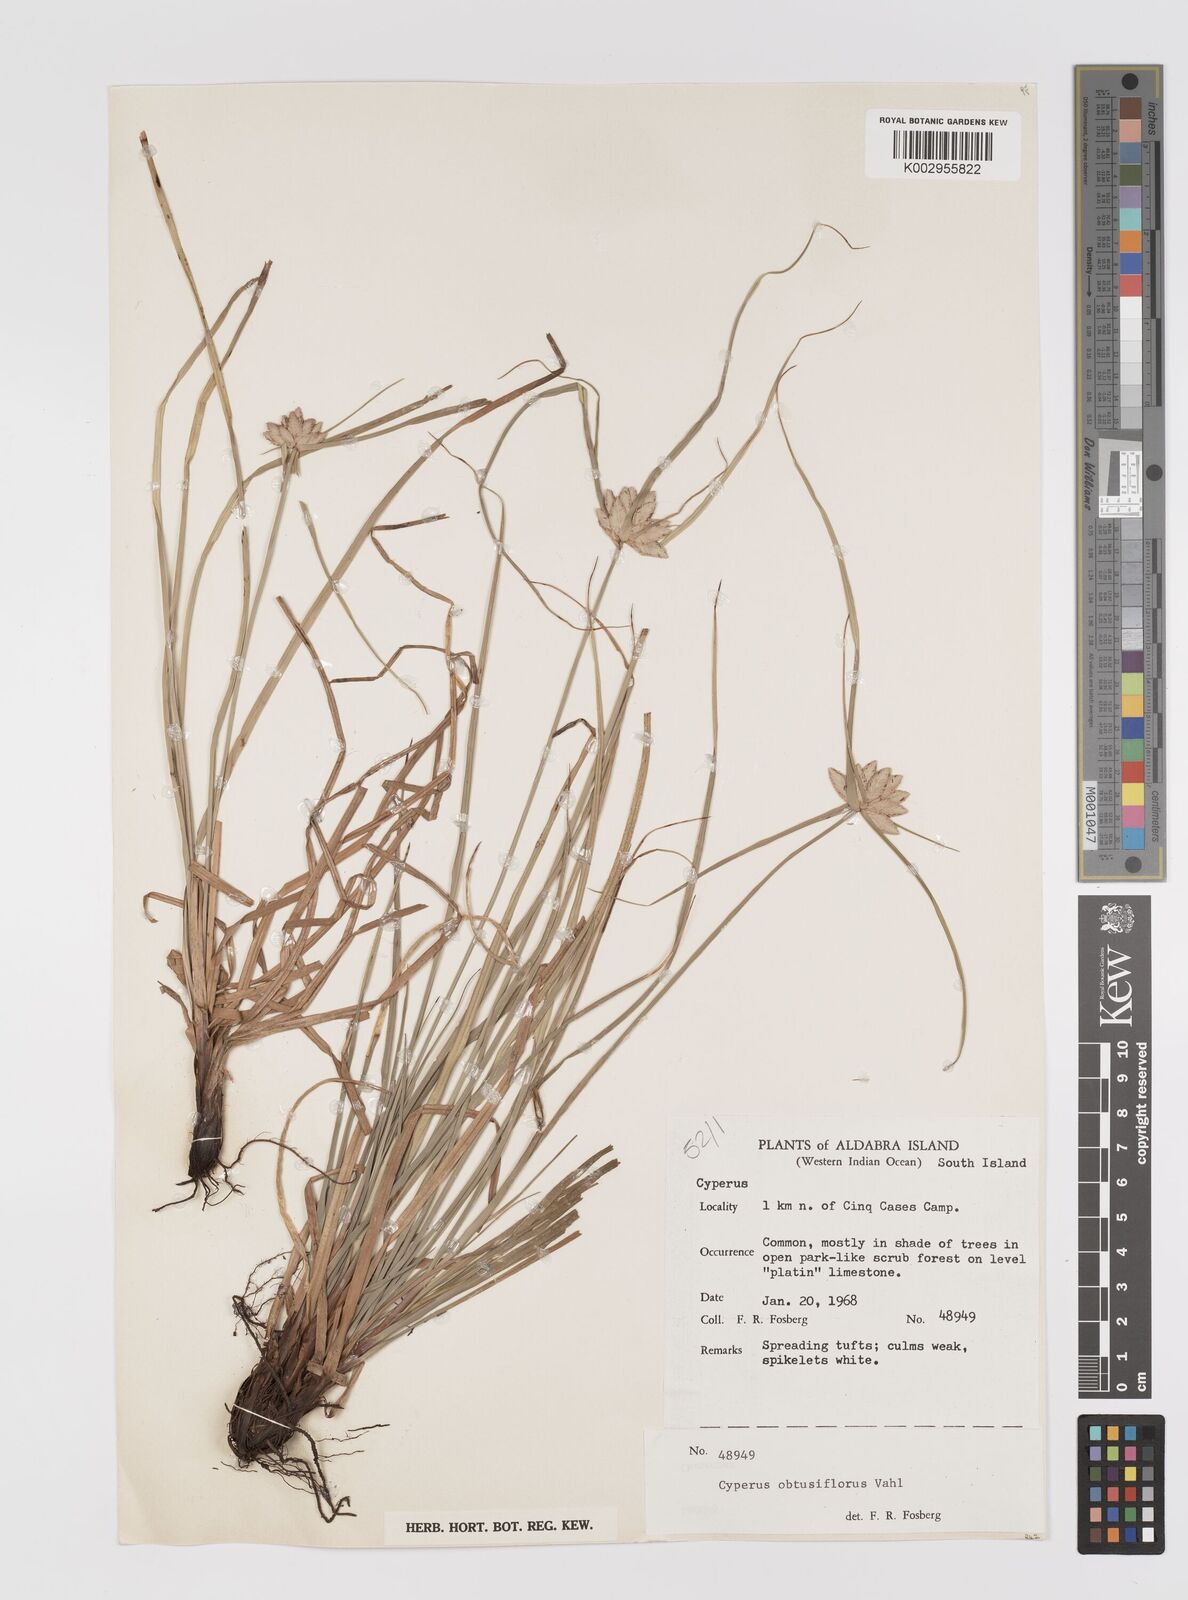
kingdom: Plantae
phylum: Tracheophyta
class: Liliopsida
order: Poales
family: Cyperaceae
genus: Cyperus
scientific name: Cyperus niveus
